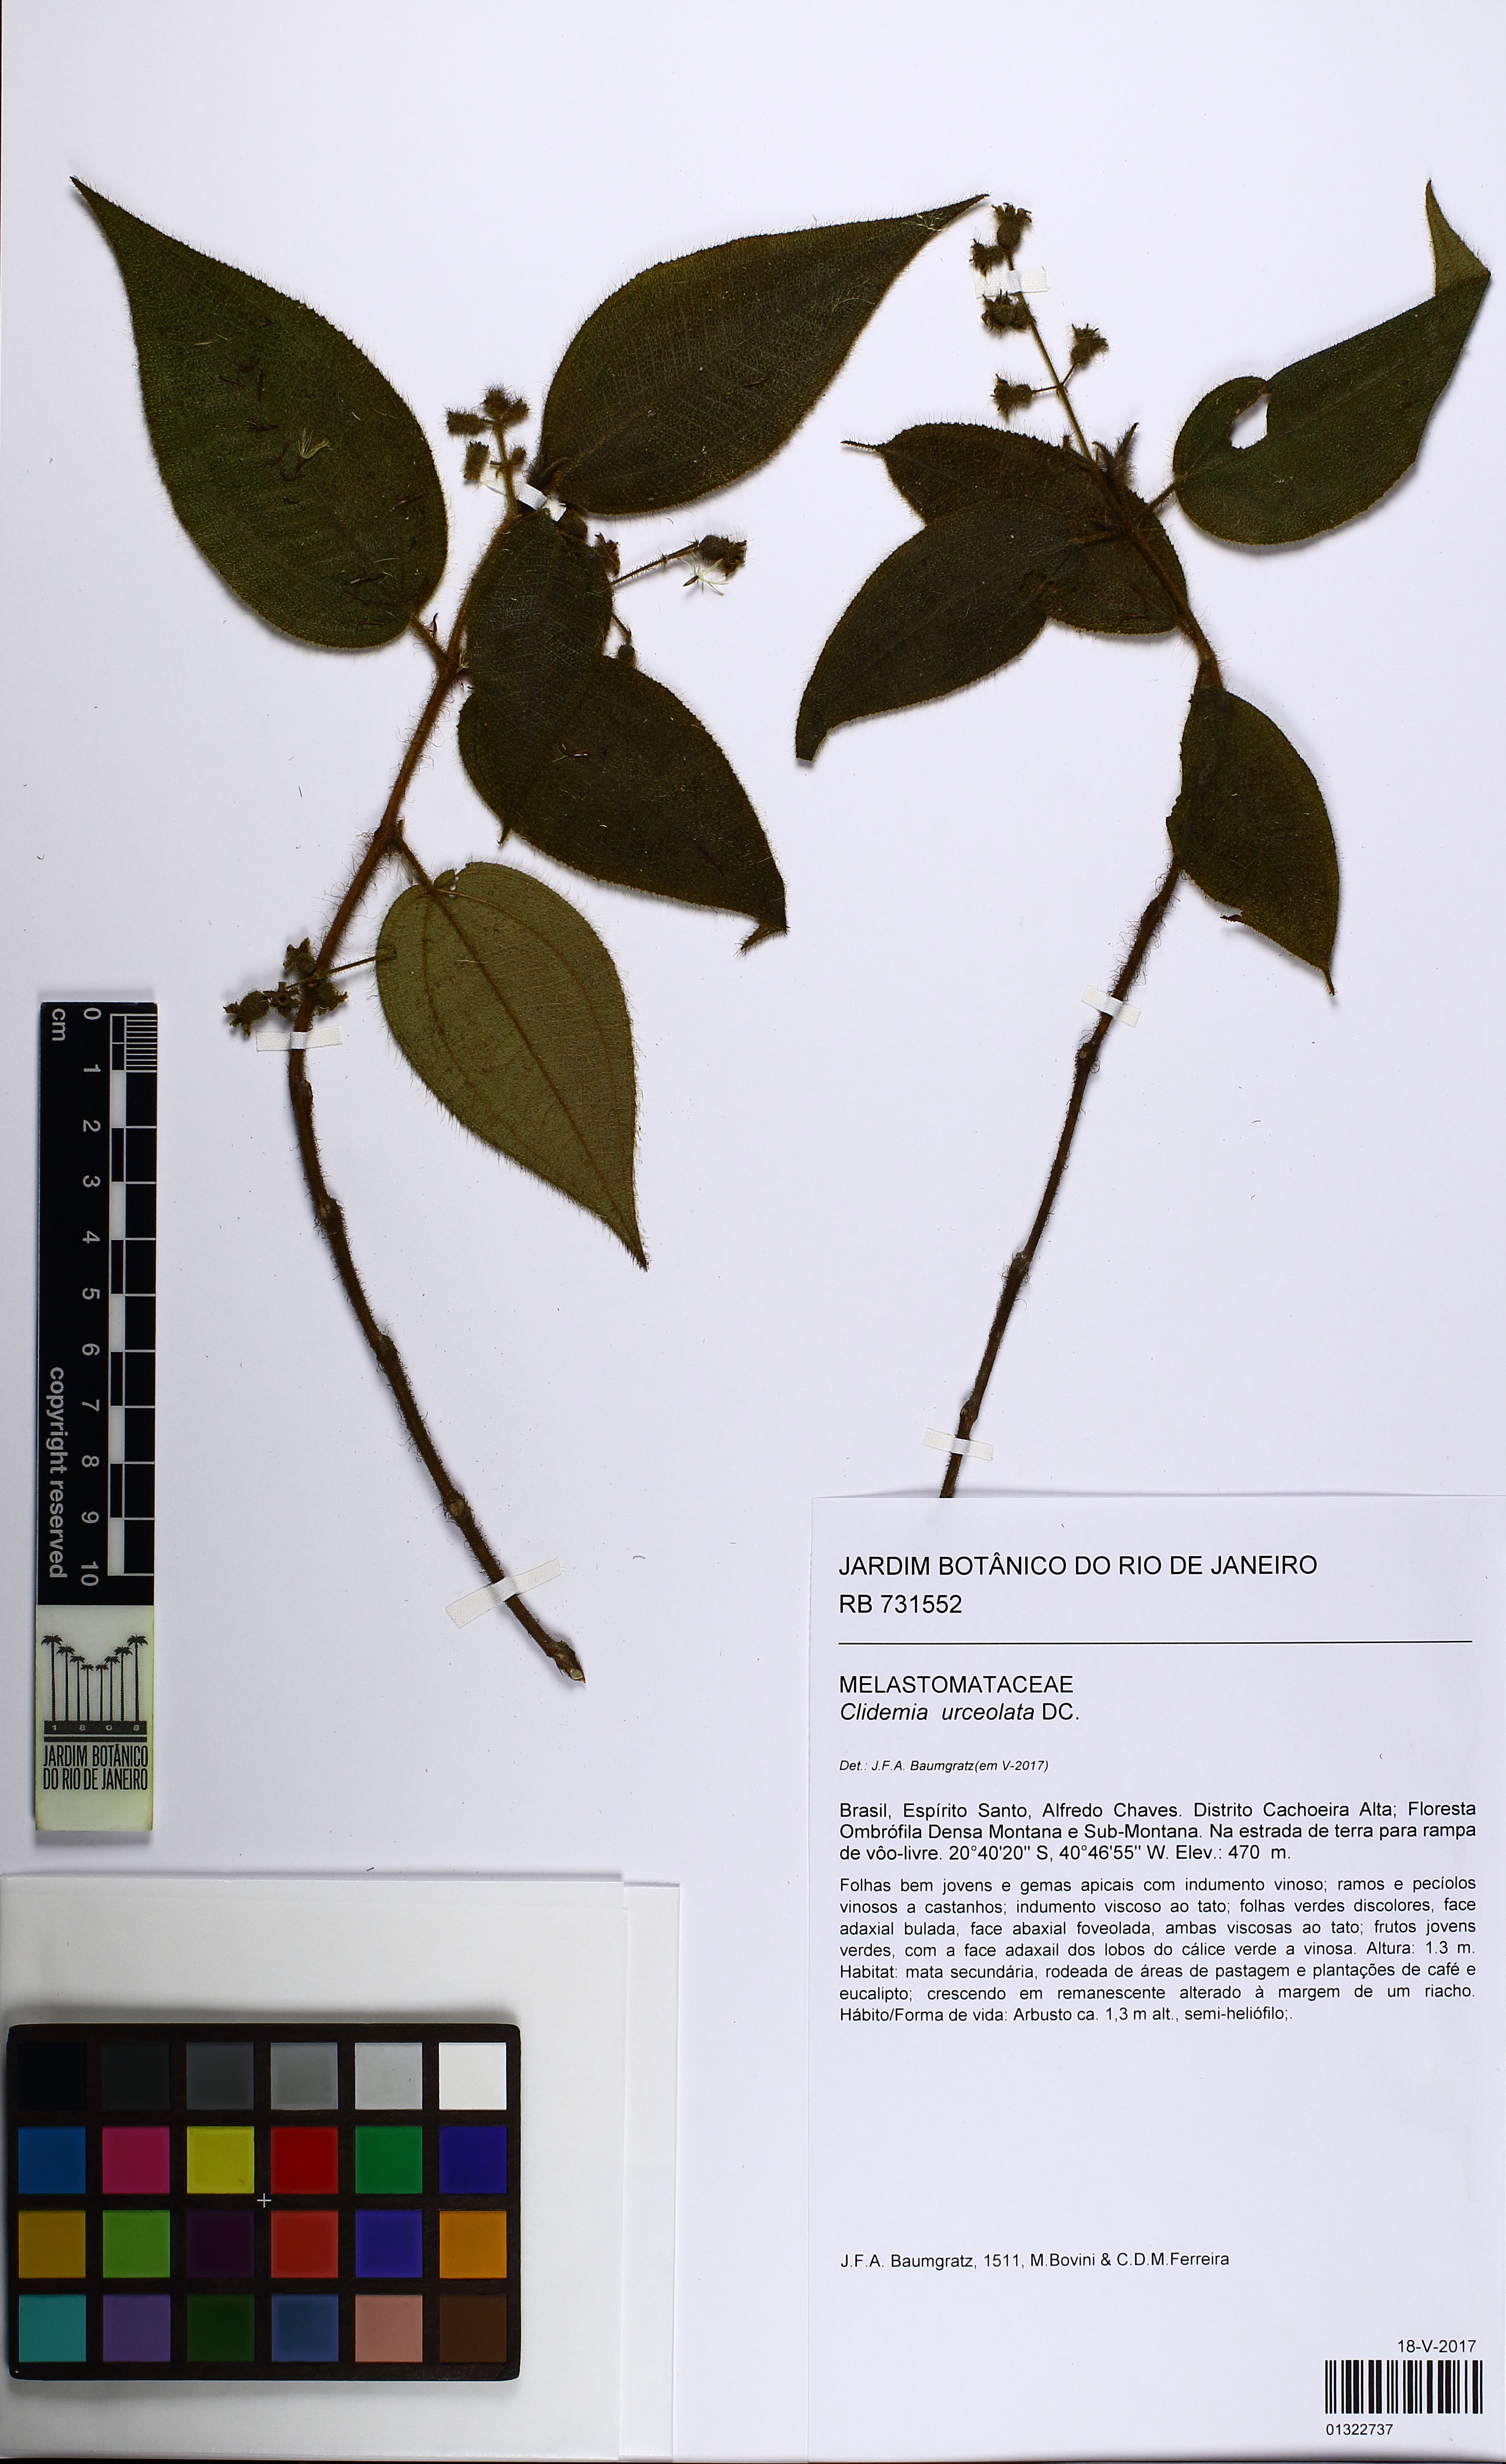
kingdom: Plantae
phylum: Tracheophyta
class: Magnoliopsida
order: Myrtales
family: Melastomataceae
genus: Miconia
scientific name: Miconia neourceolata
